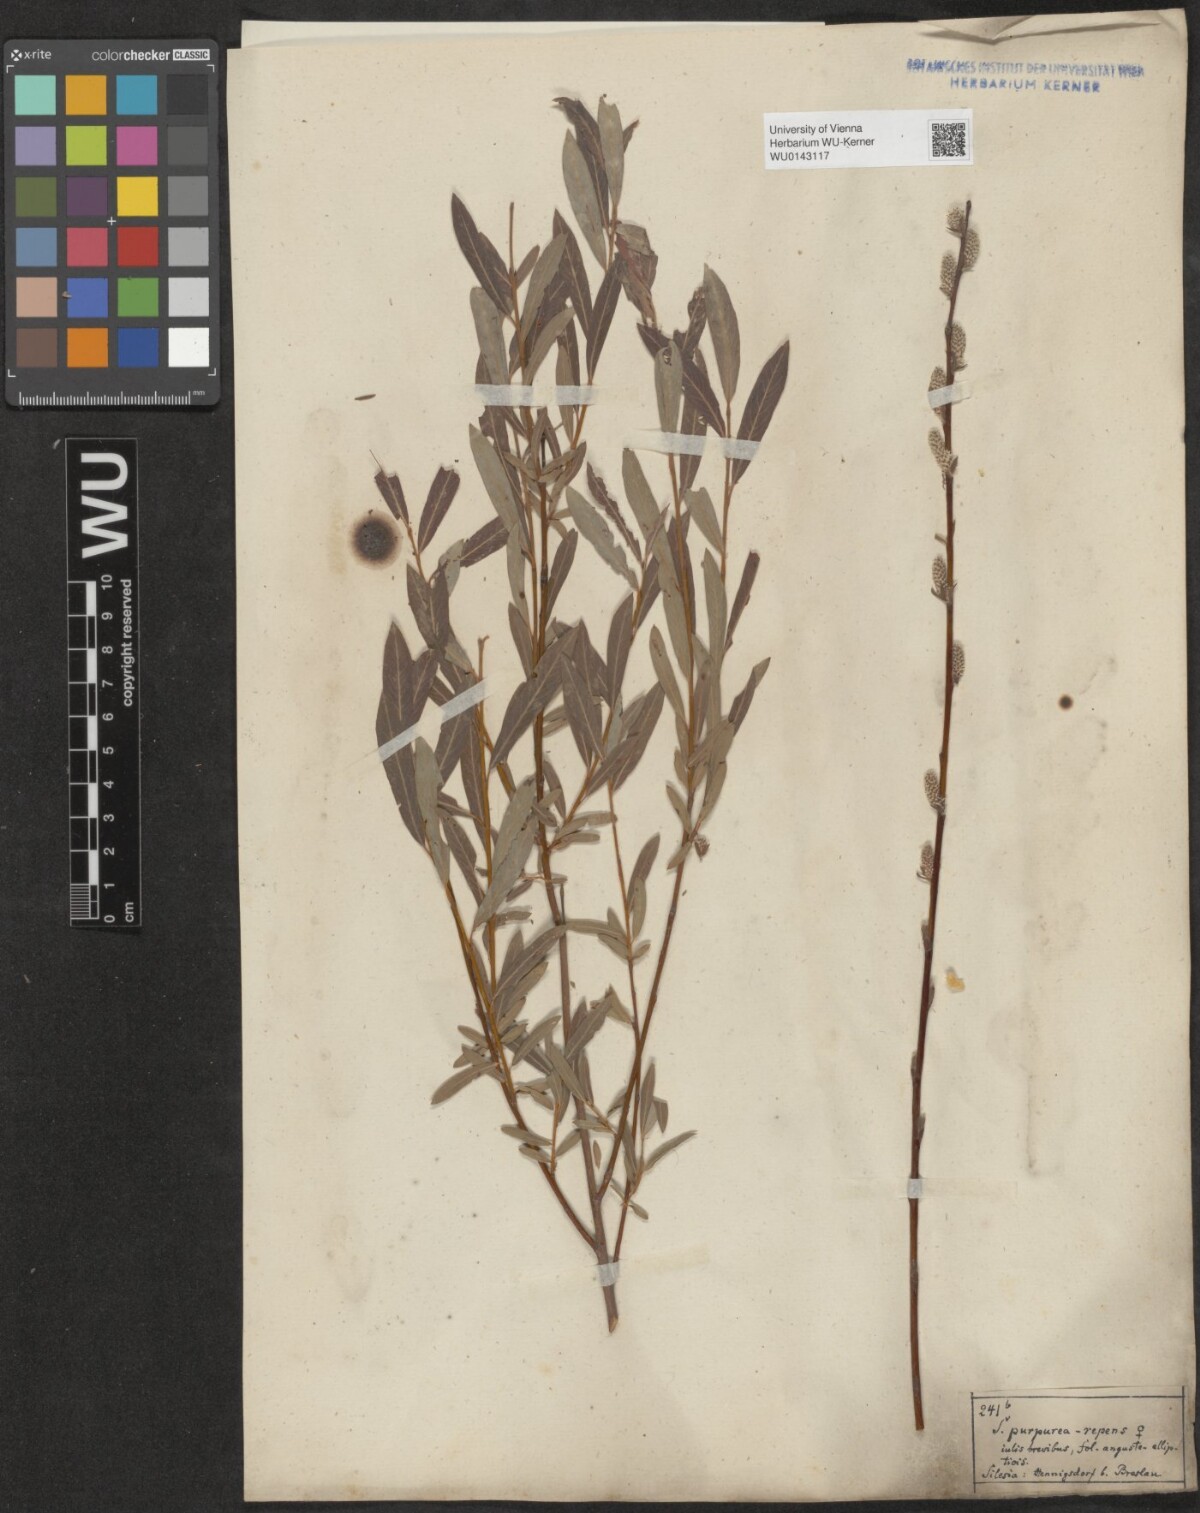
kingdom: Plantae
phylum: Tracheophyta
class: Magnoliopsida
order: Malpighiales
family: Salicaceae
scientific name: Salicaceae
